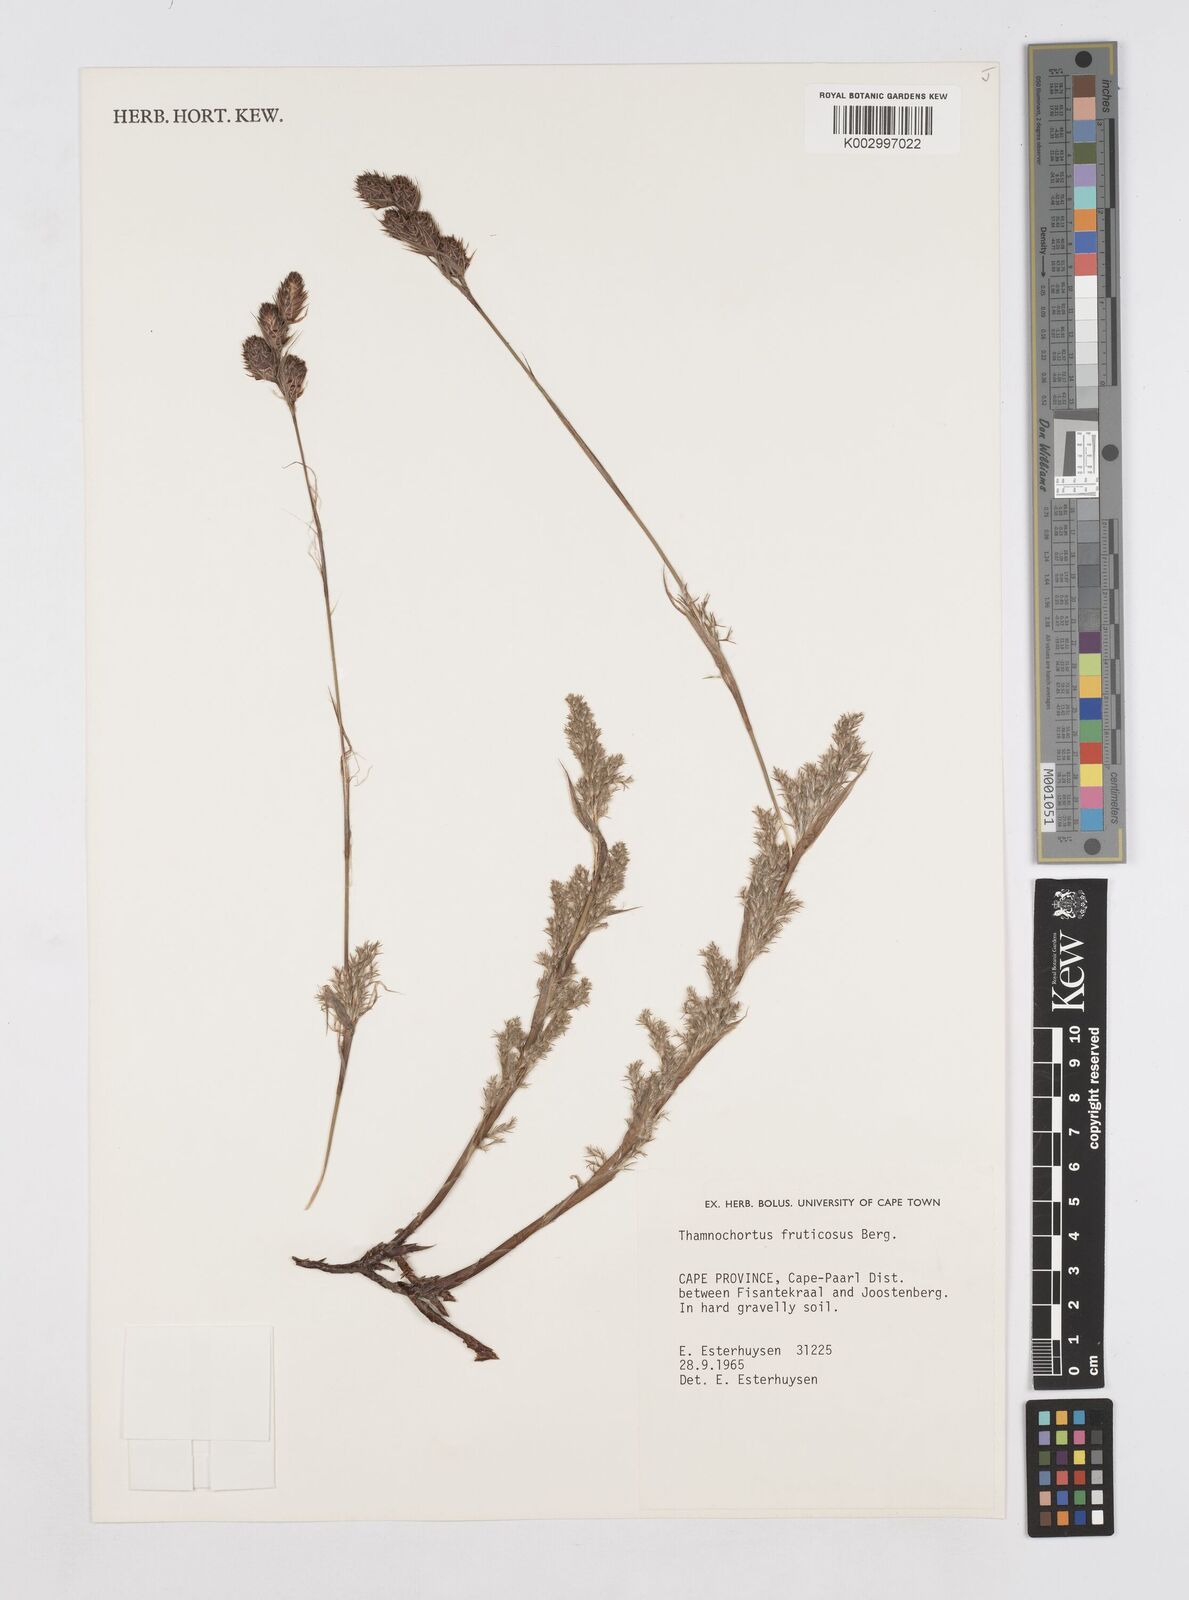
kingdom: Plantae
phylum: Tracheophyta
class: Liliopsida
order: Poales
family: Restionaceae
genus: Thamnochortus
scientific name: Thamnochortus fruticosus
